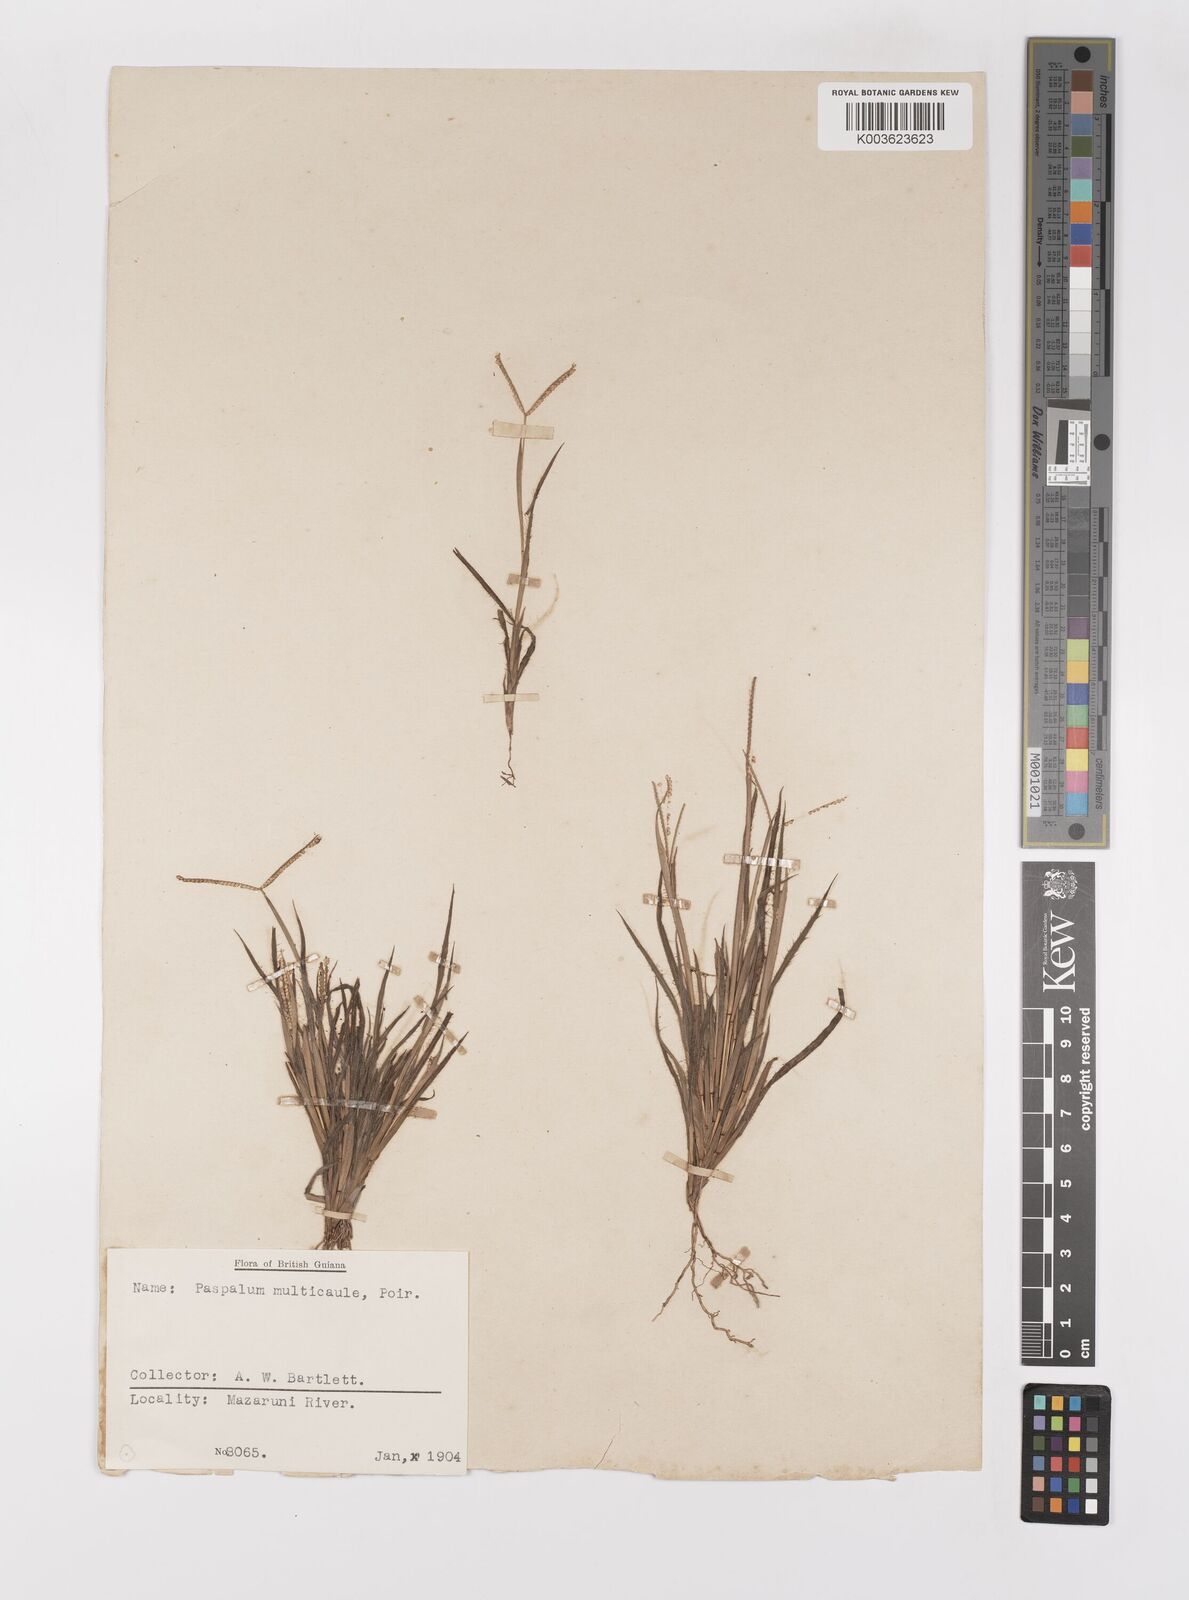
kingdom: Plantae
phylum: Tracheophyta
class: Liliopsida
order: Poales
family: Poaceae
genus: Paspalum
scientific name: Paspalum multicaule
